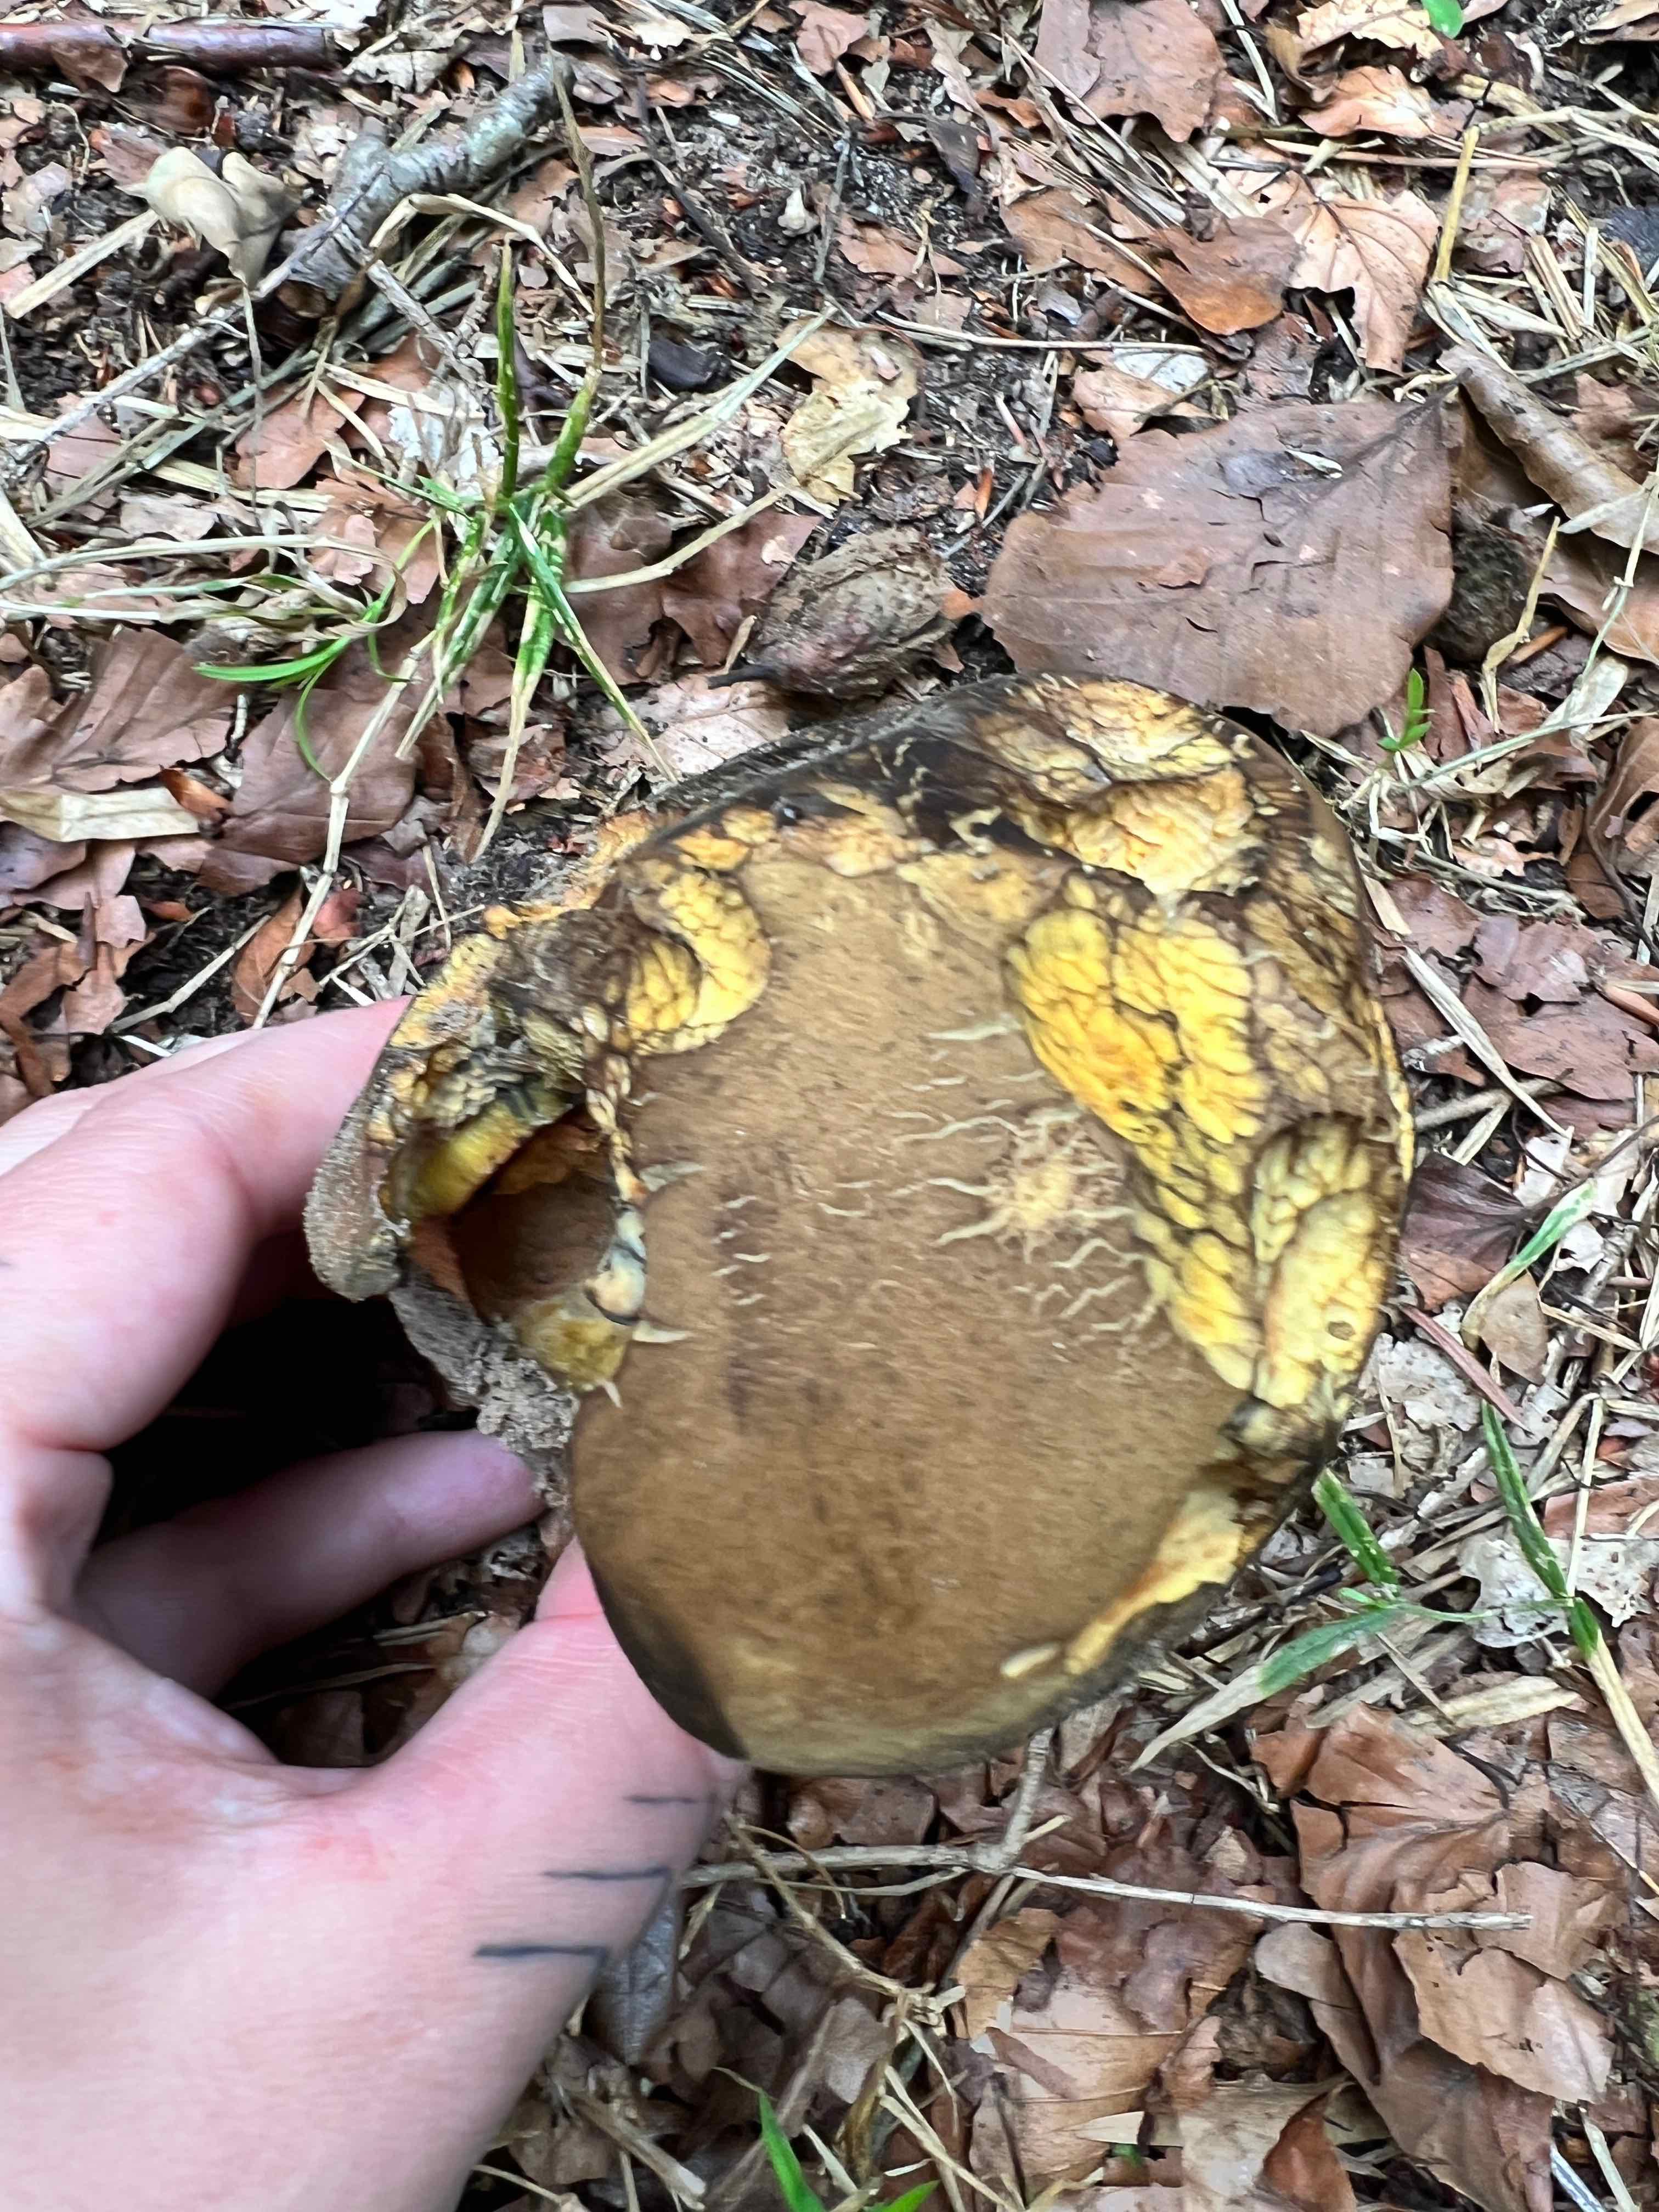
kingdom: Fungi
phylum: Basidiomycota
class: Agaricomycetes
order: Boletales
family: Boletaceae
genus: Neoboletus
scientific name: Neoboletus erythropus
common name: punktstokket indigorørhat
